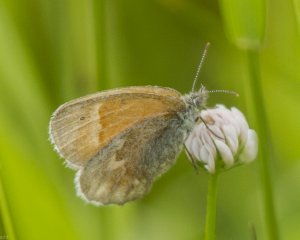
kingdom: Animalia
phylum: Arthropoda
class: Insecta
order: Lepidoptera
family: Nymphalidae
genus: Coenonympha
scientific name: Coenonympha tullia
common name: Large Heath
